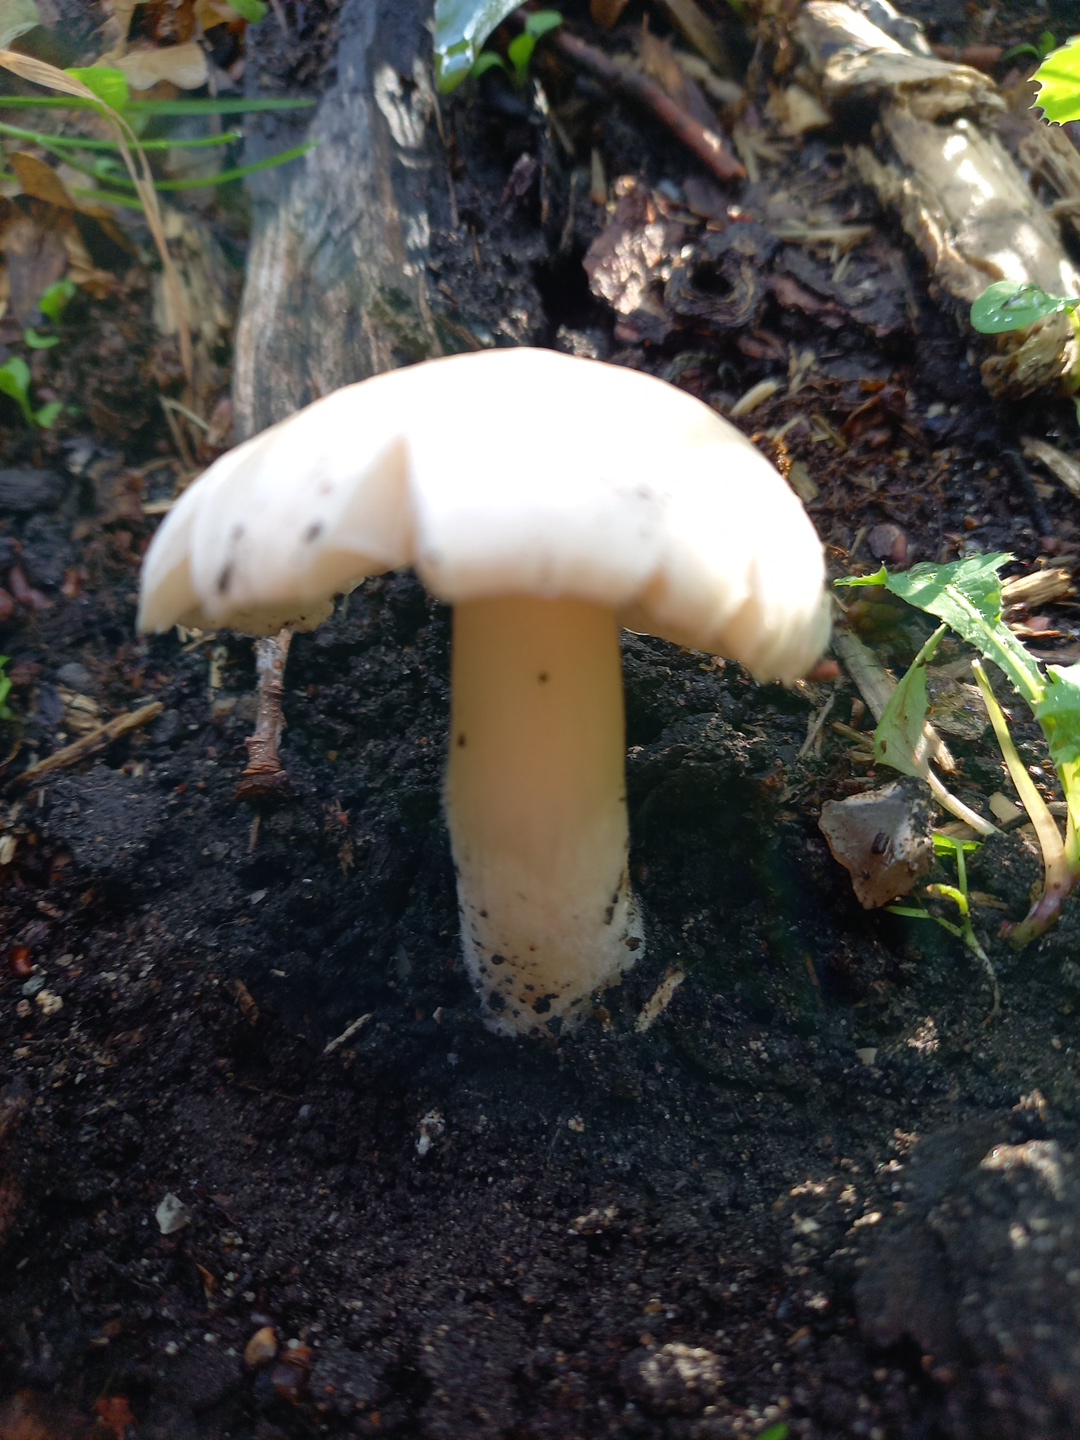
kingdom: Fungi
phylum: Basidiomycota
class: Agaricomycetes
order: Agaricales
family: Pluteaceae
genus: Volvopluteus
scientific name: Volvopluteus gloiocephalus
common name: høj posesvamp
